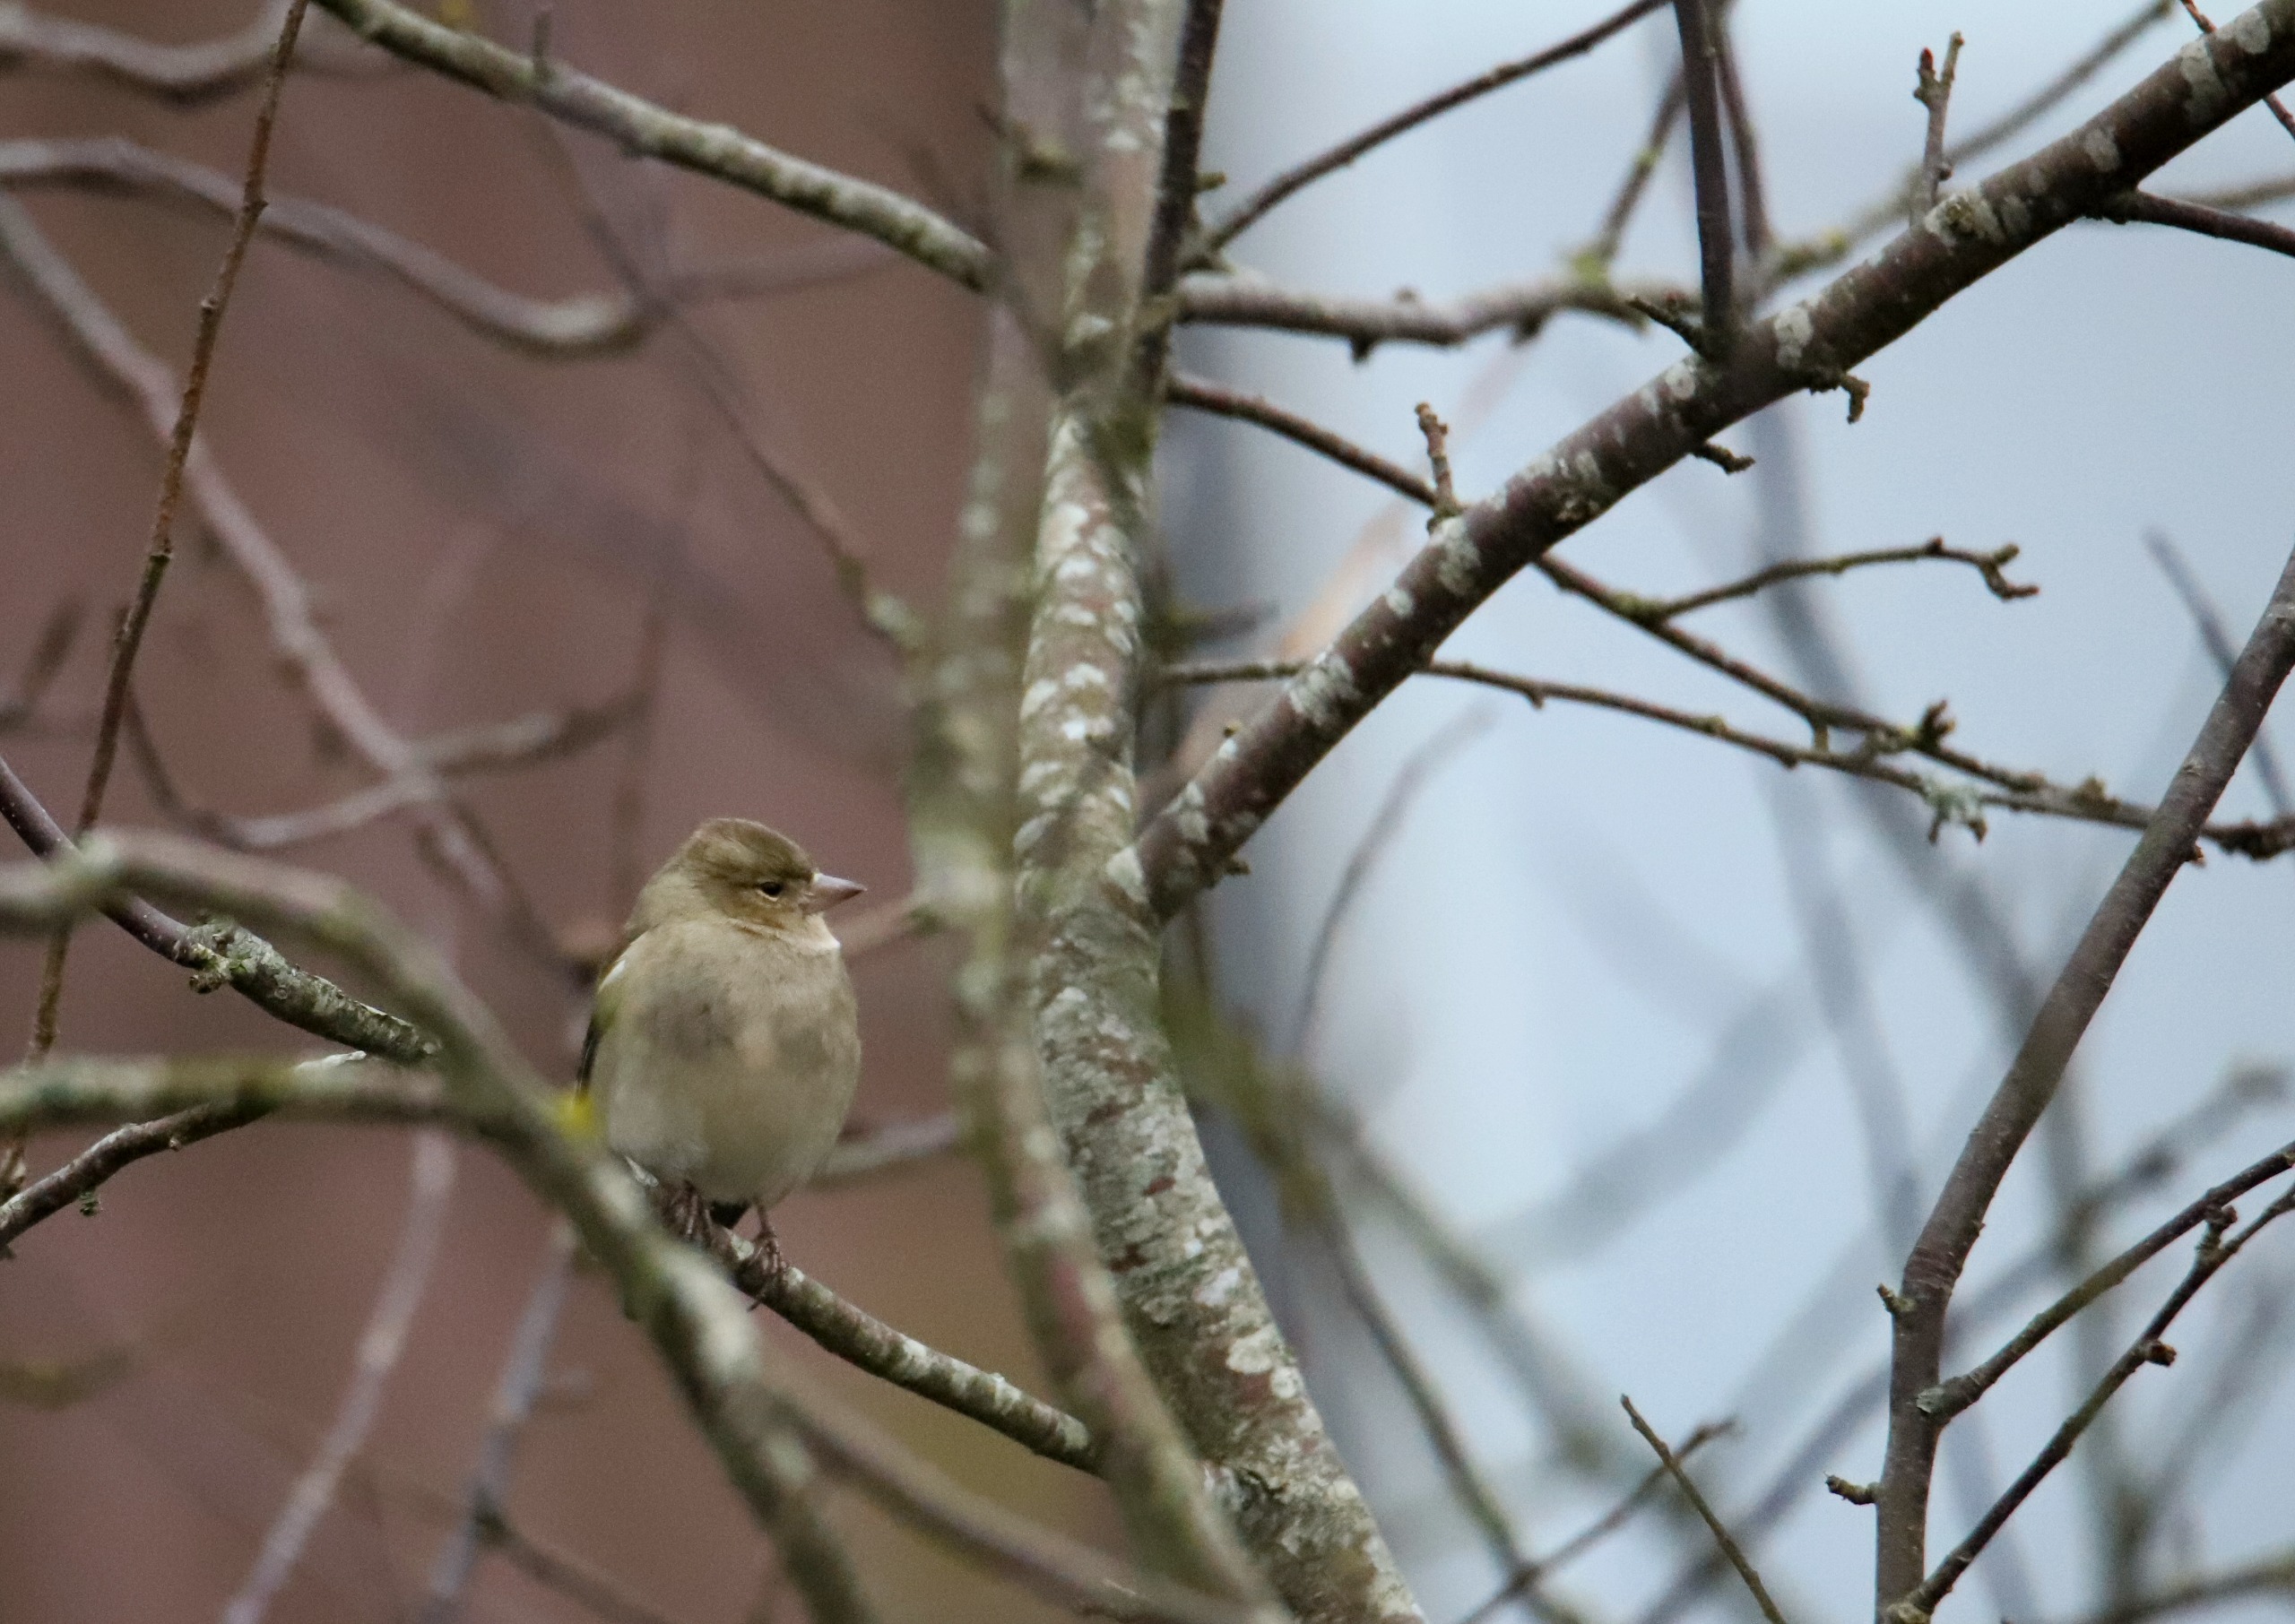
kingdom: Animalia
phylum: Chordata
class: Aves
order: Passeriformes
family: Fringillidae
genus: Fringilla
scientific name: Fringilla coelebs
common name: Bogfinke
